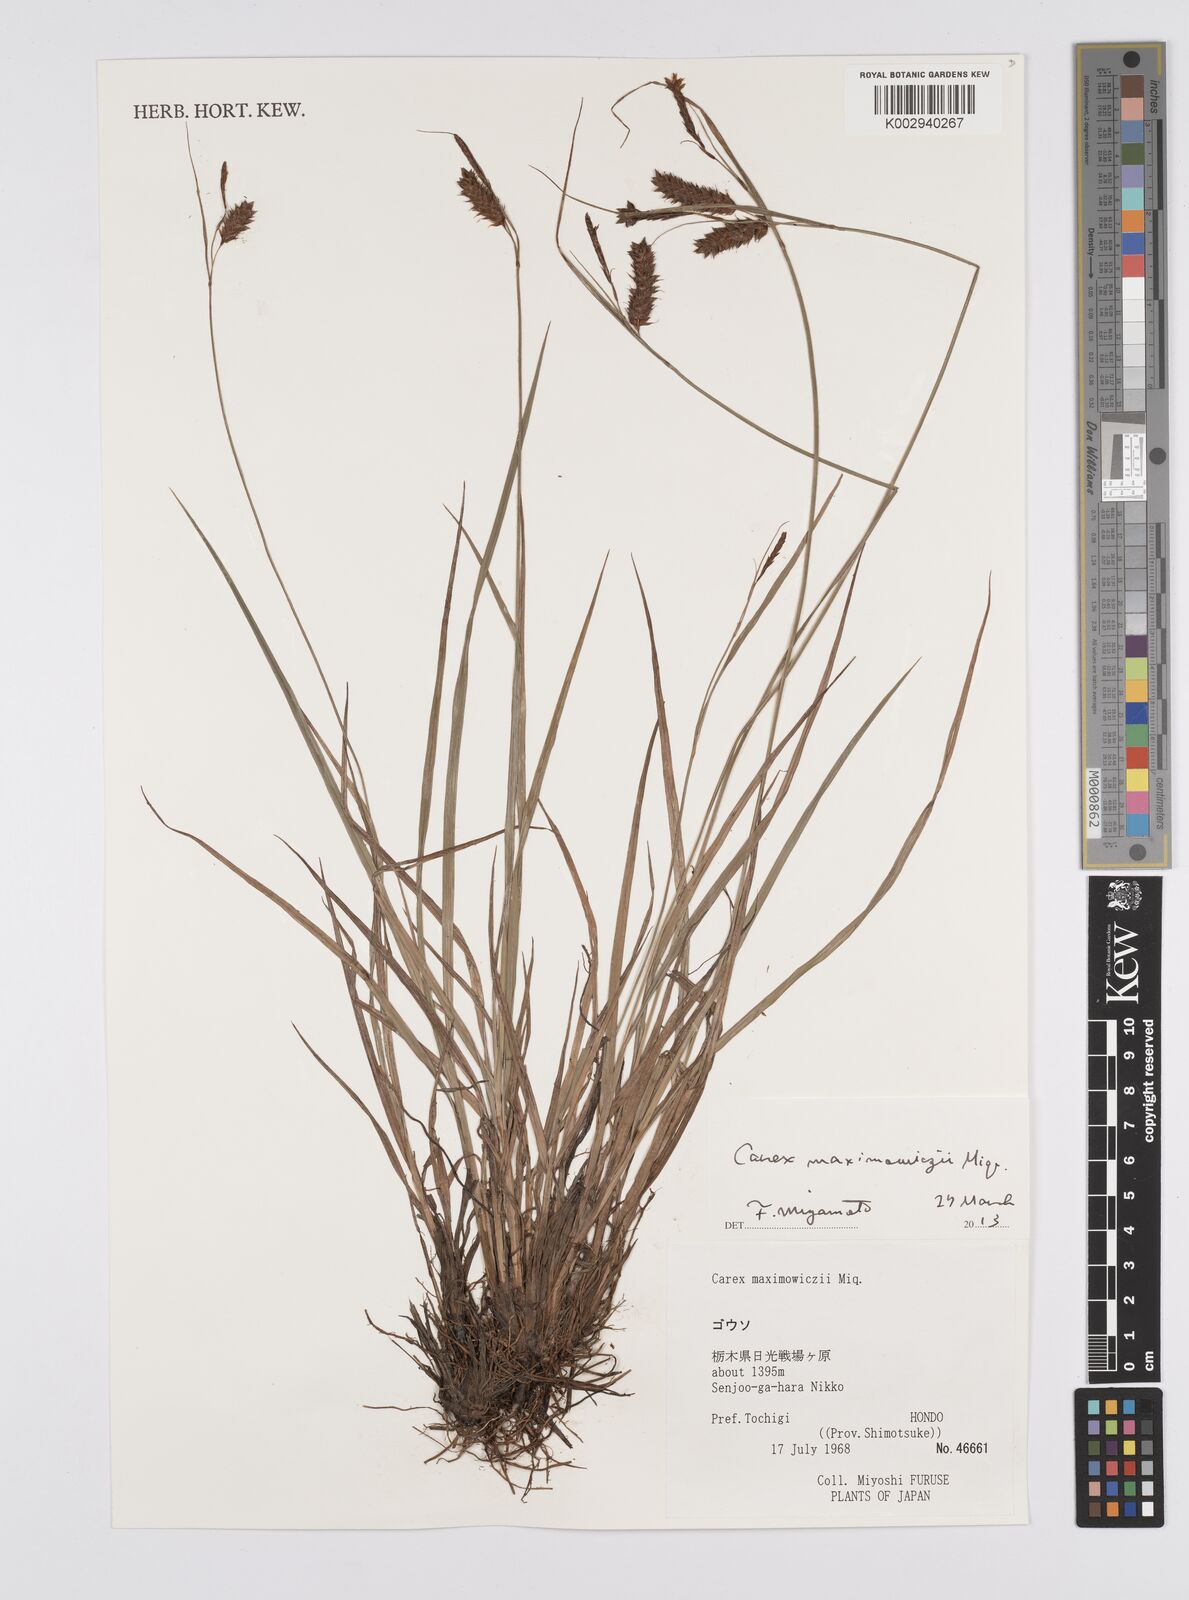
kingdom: Plantae
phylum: Tracheophyta
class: Liliopsida
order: Poales
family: Cyperaceae
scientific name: Cyperaceae
